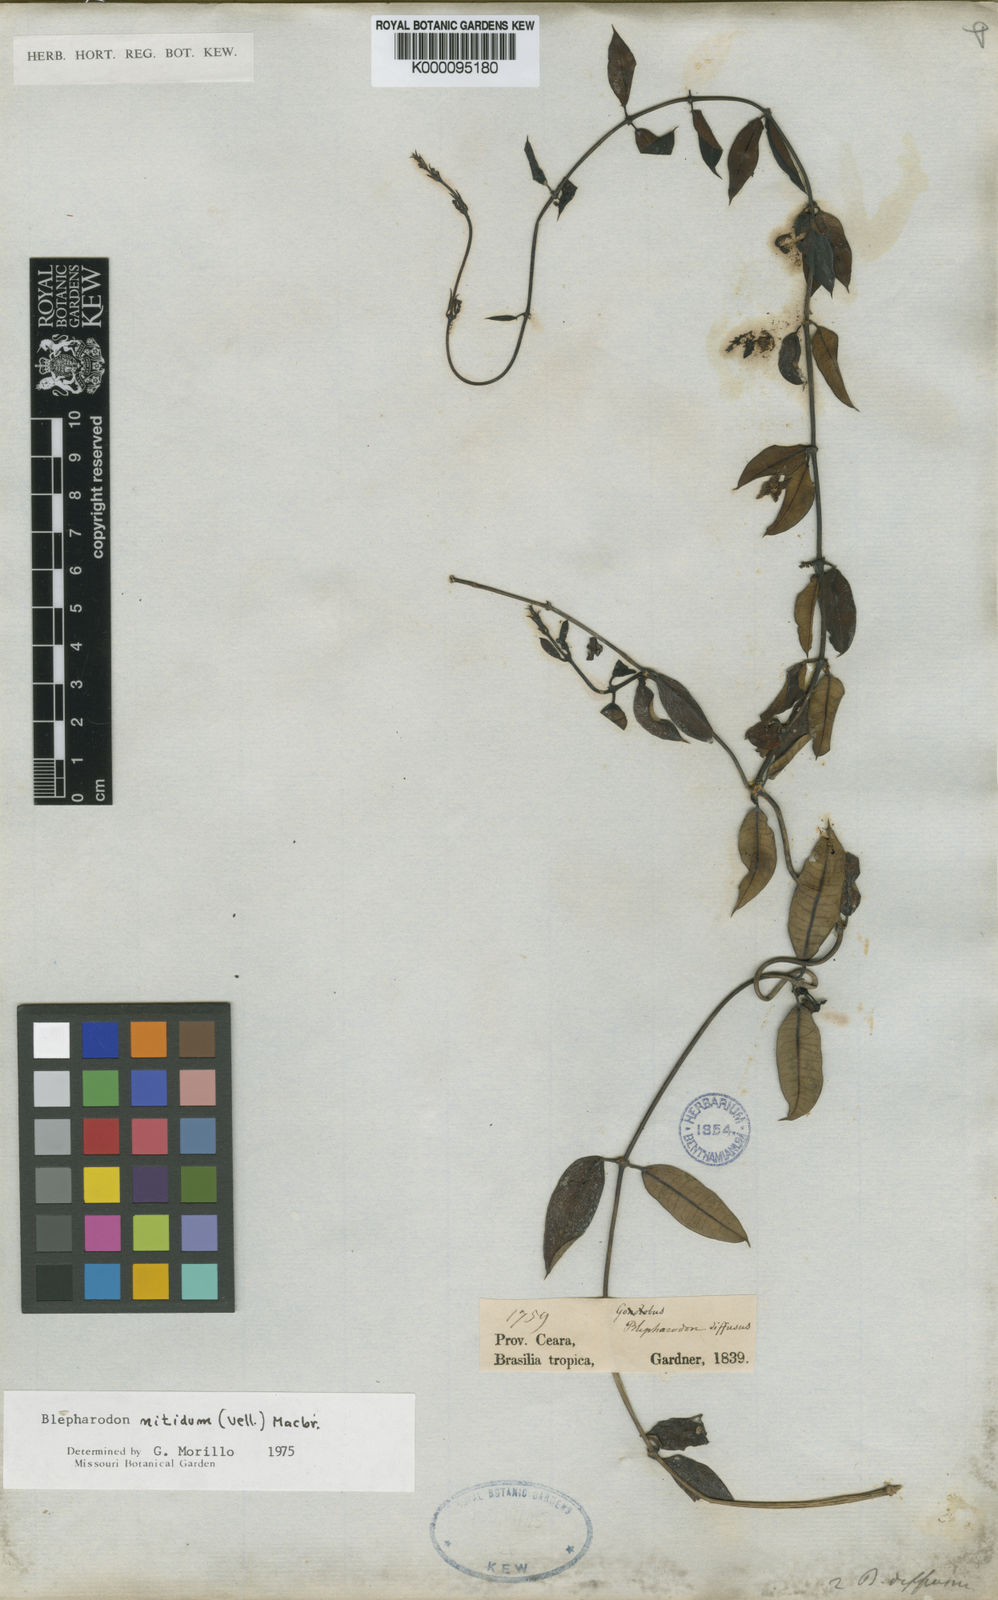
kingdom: Plantae
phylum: Tracheophyta
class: Magnoliopsida
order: Gentianales
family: Apocynaceae
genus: Blepharodon
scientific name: Blepharodon pictum
